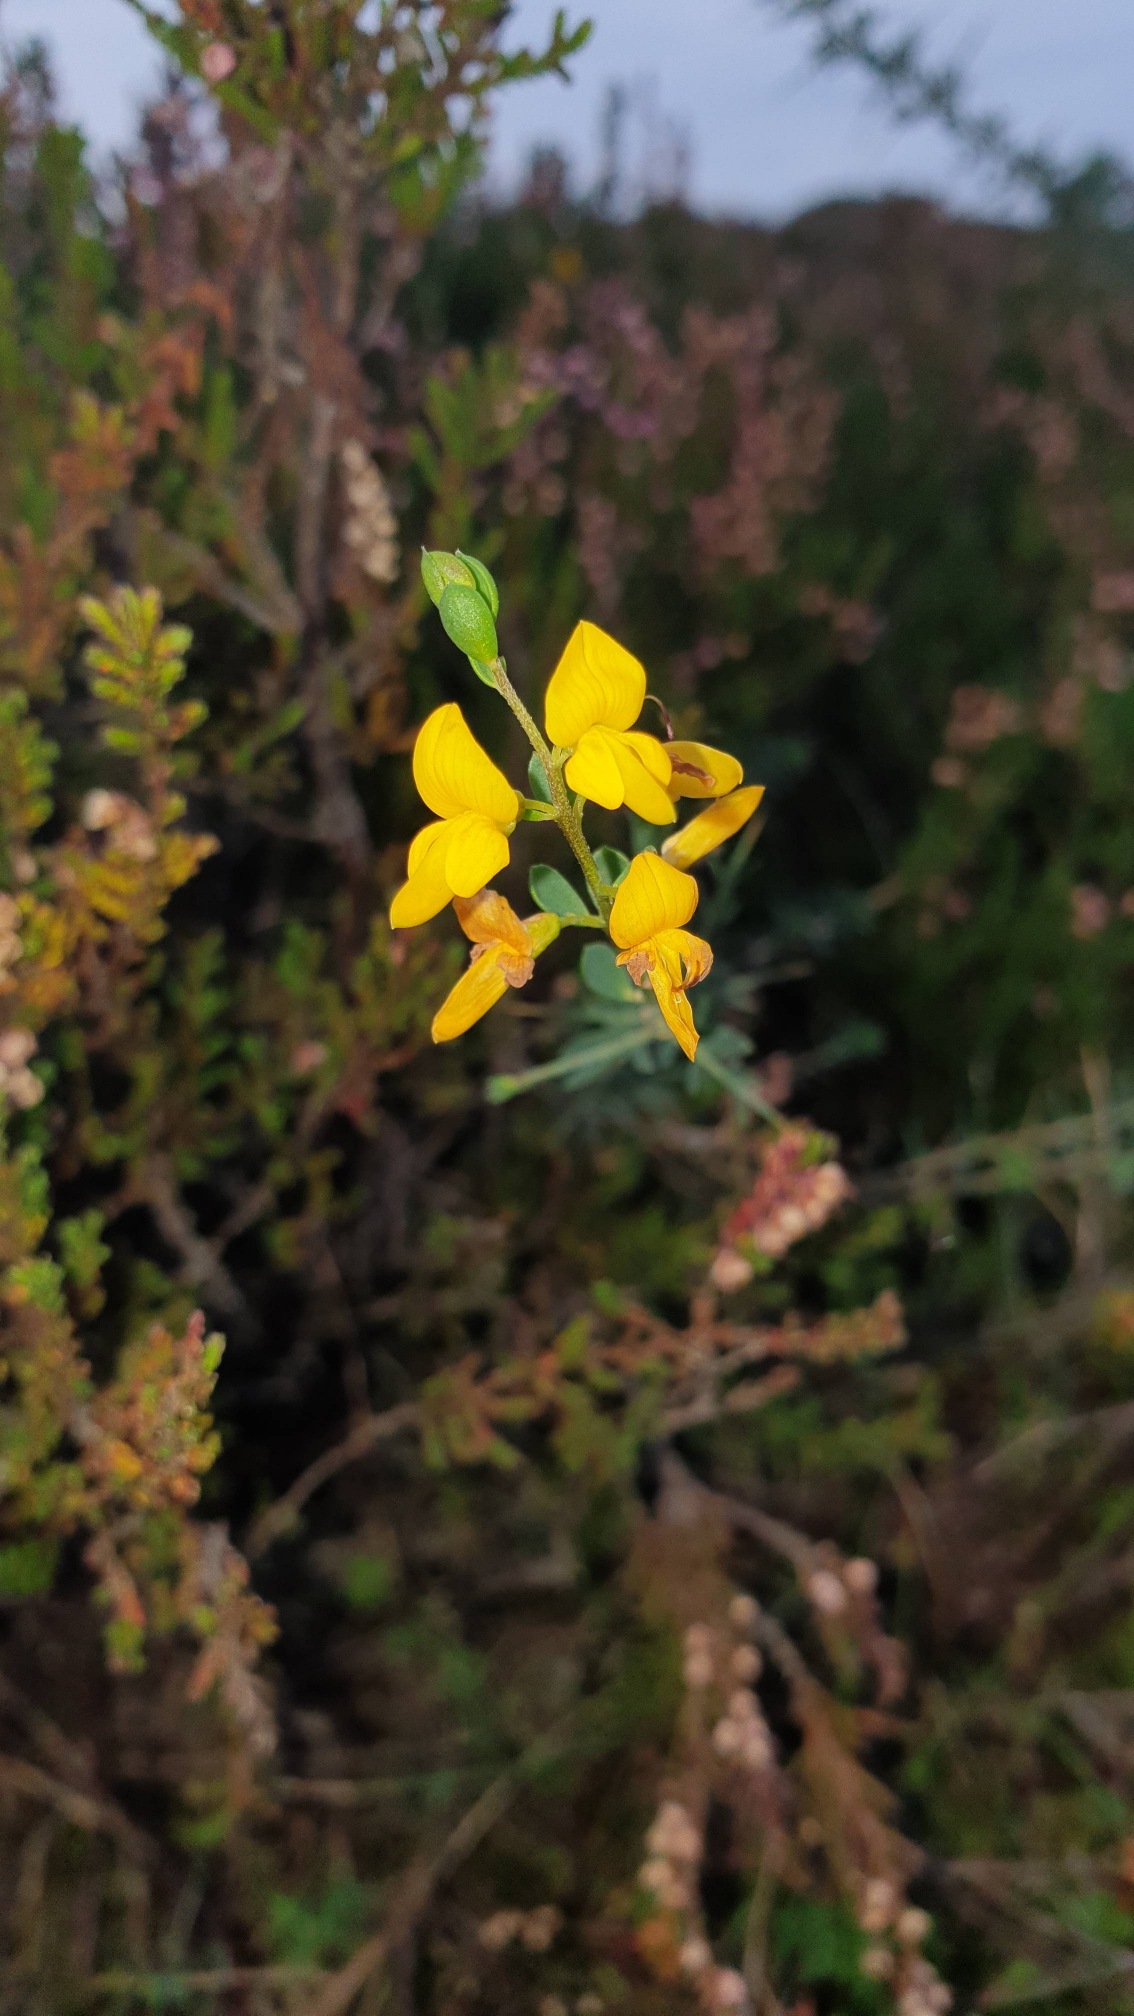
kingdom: Plantae
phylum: Tracheophyta
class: Magnoliopsida
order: Fabales
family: Fabaceae
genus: Genista
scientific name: Genista anglica
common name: Engelsk visse
